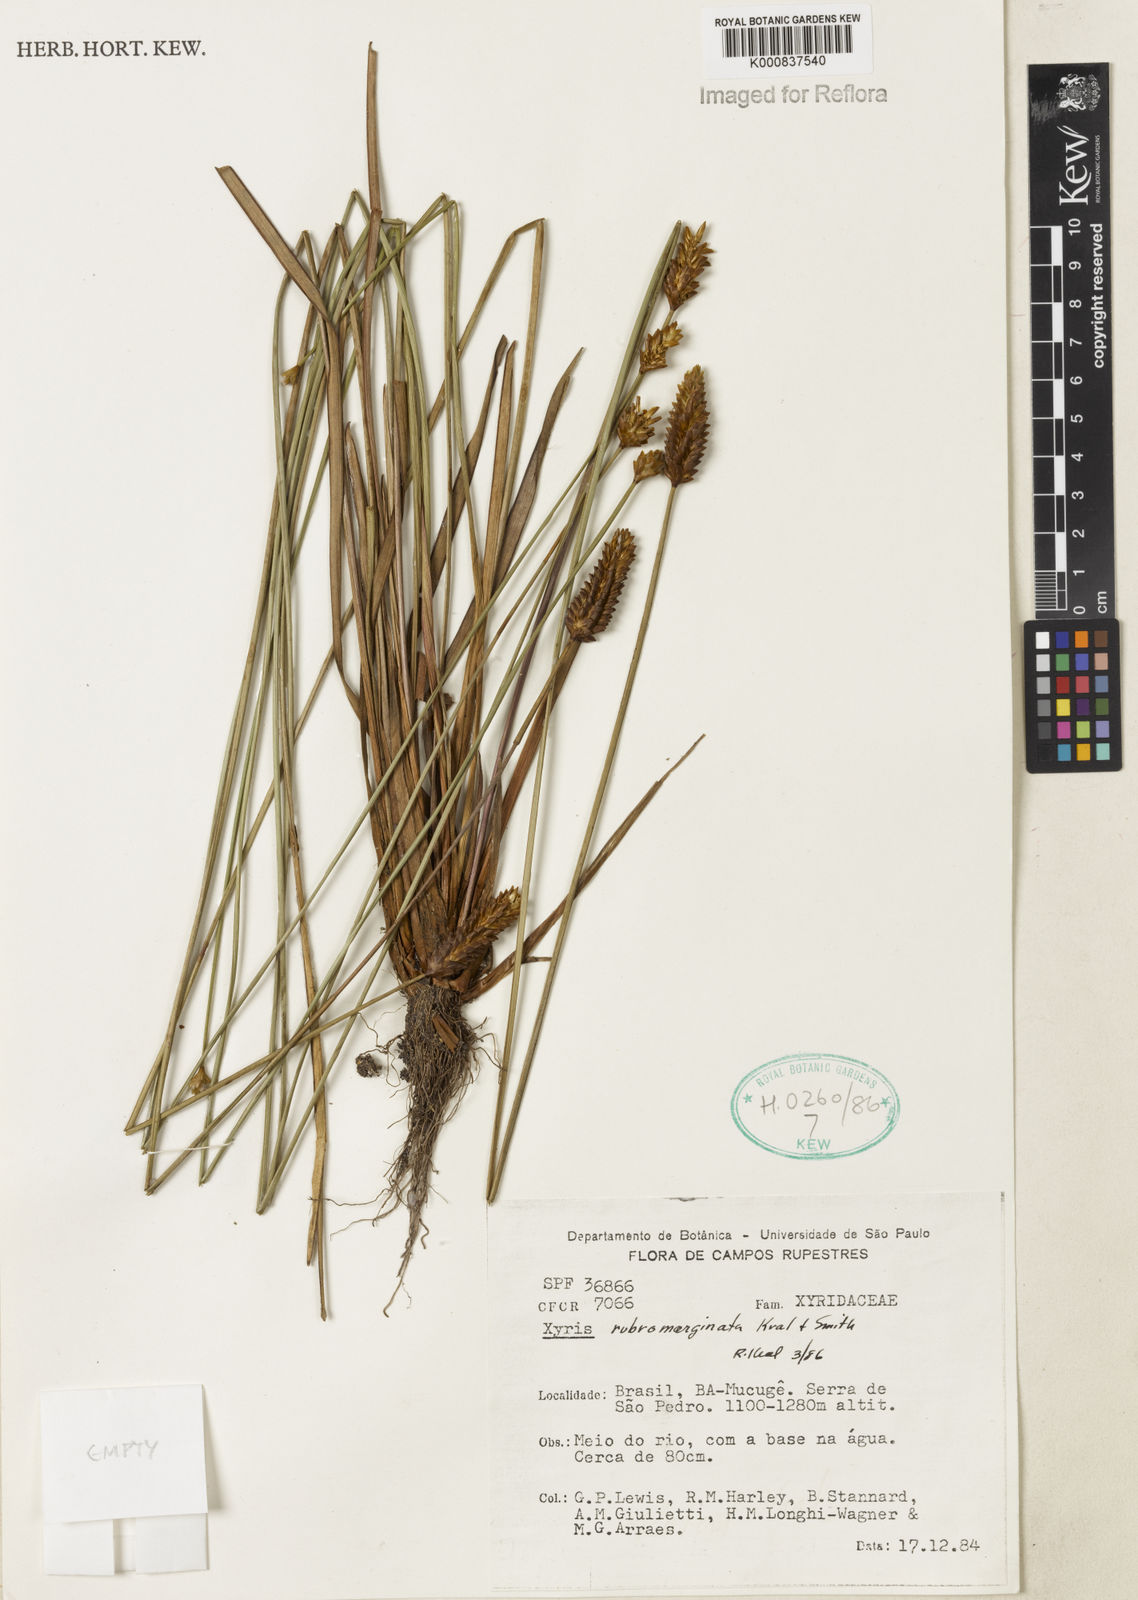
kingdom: Plantae
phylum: Tracheophyta
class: Liliopsida
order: Poales
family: Xyridaceae
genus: Xyris
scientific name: Xyris rubromarginata
